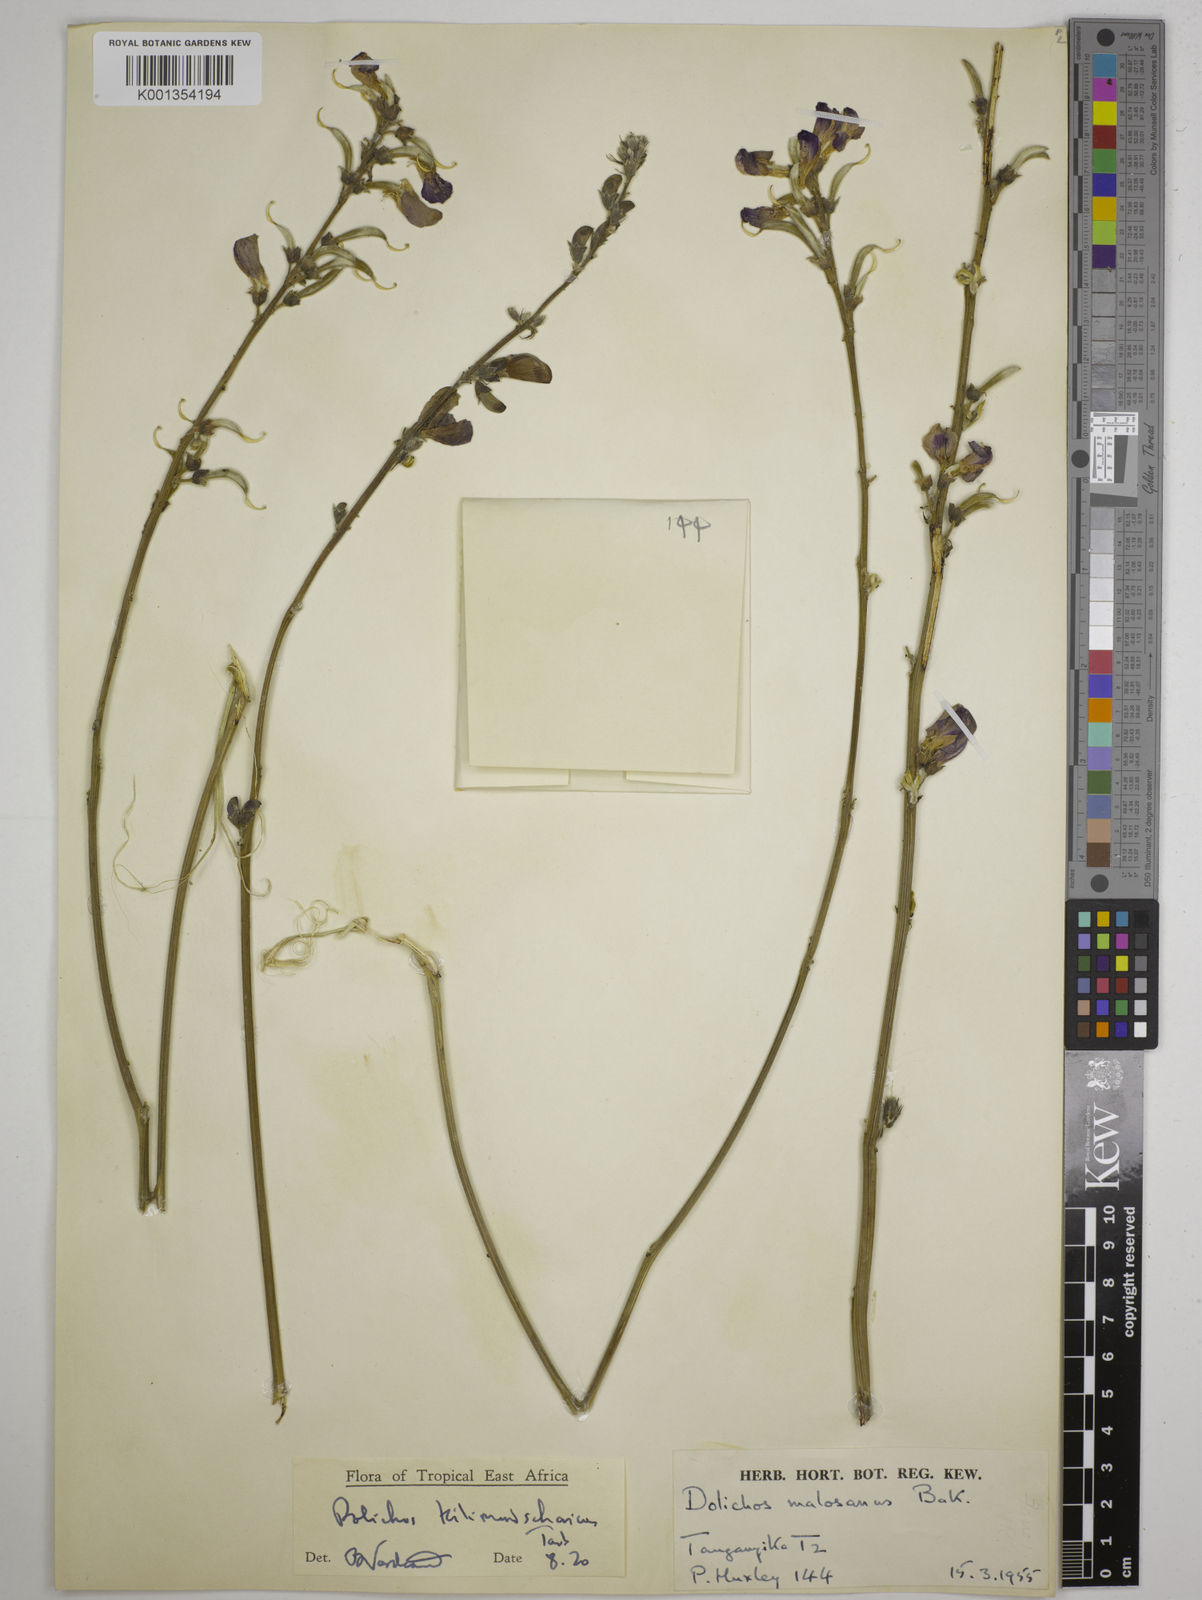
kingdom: Plantae
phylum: Tracheophyta
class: Magnoliopsida
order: Fabales
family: Fabaceae
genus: Dolichos
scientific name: Dolichos kilimandscharicus
